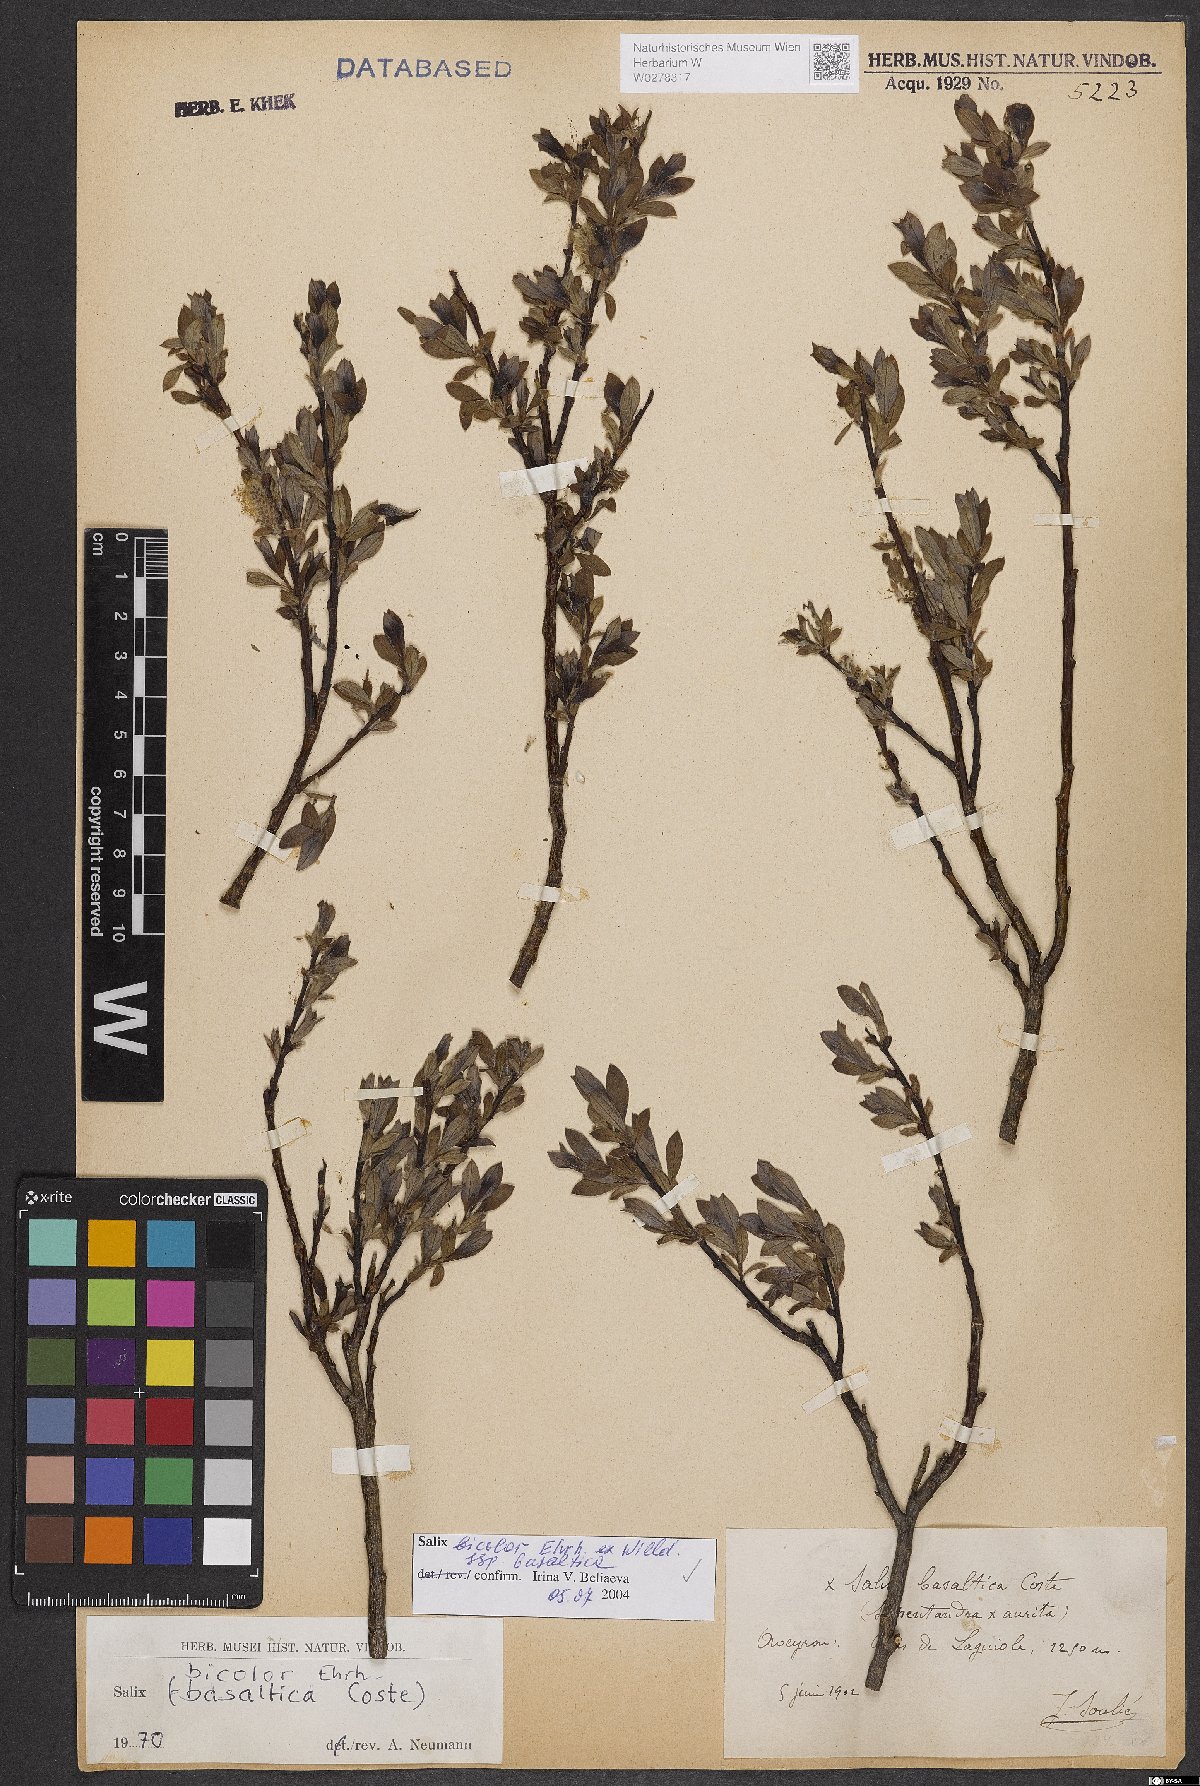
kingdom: Plantae
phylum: Tracheophyta
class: Magnoliopsida
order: Malpighiales
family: Salicaceae
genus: Salix
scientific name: Salix basaltica
